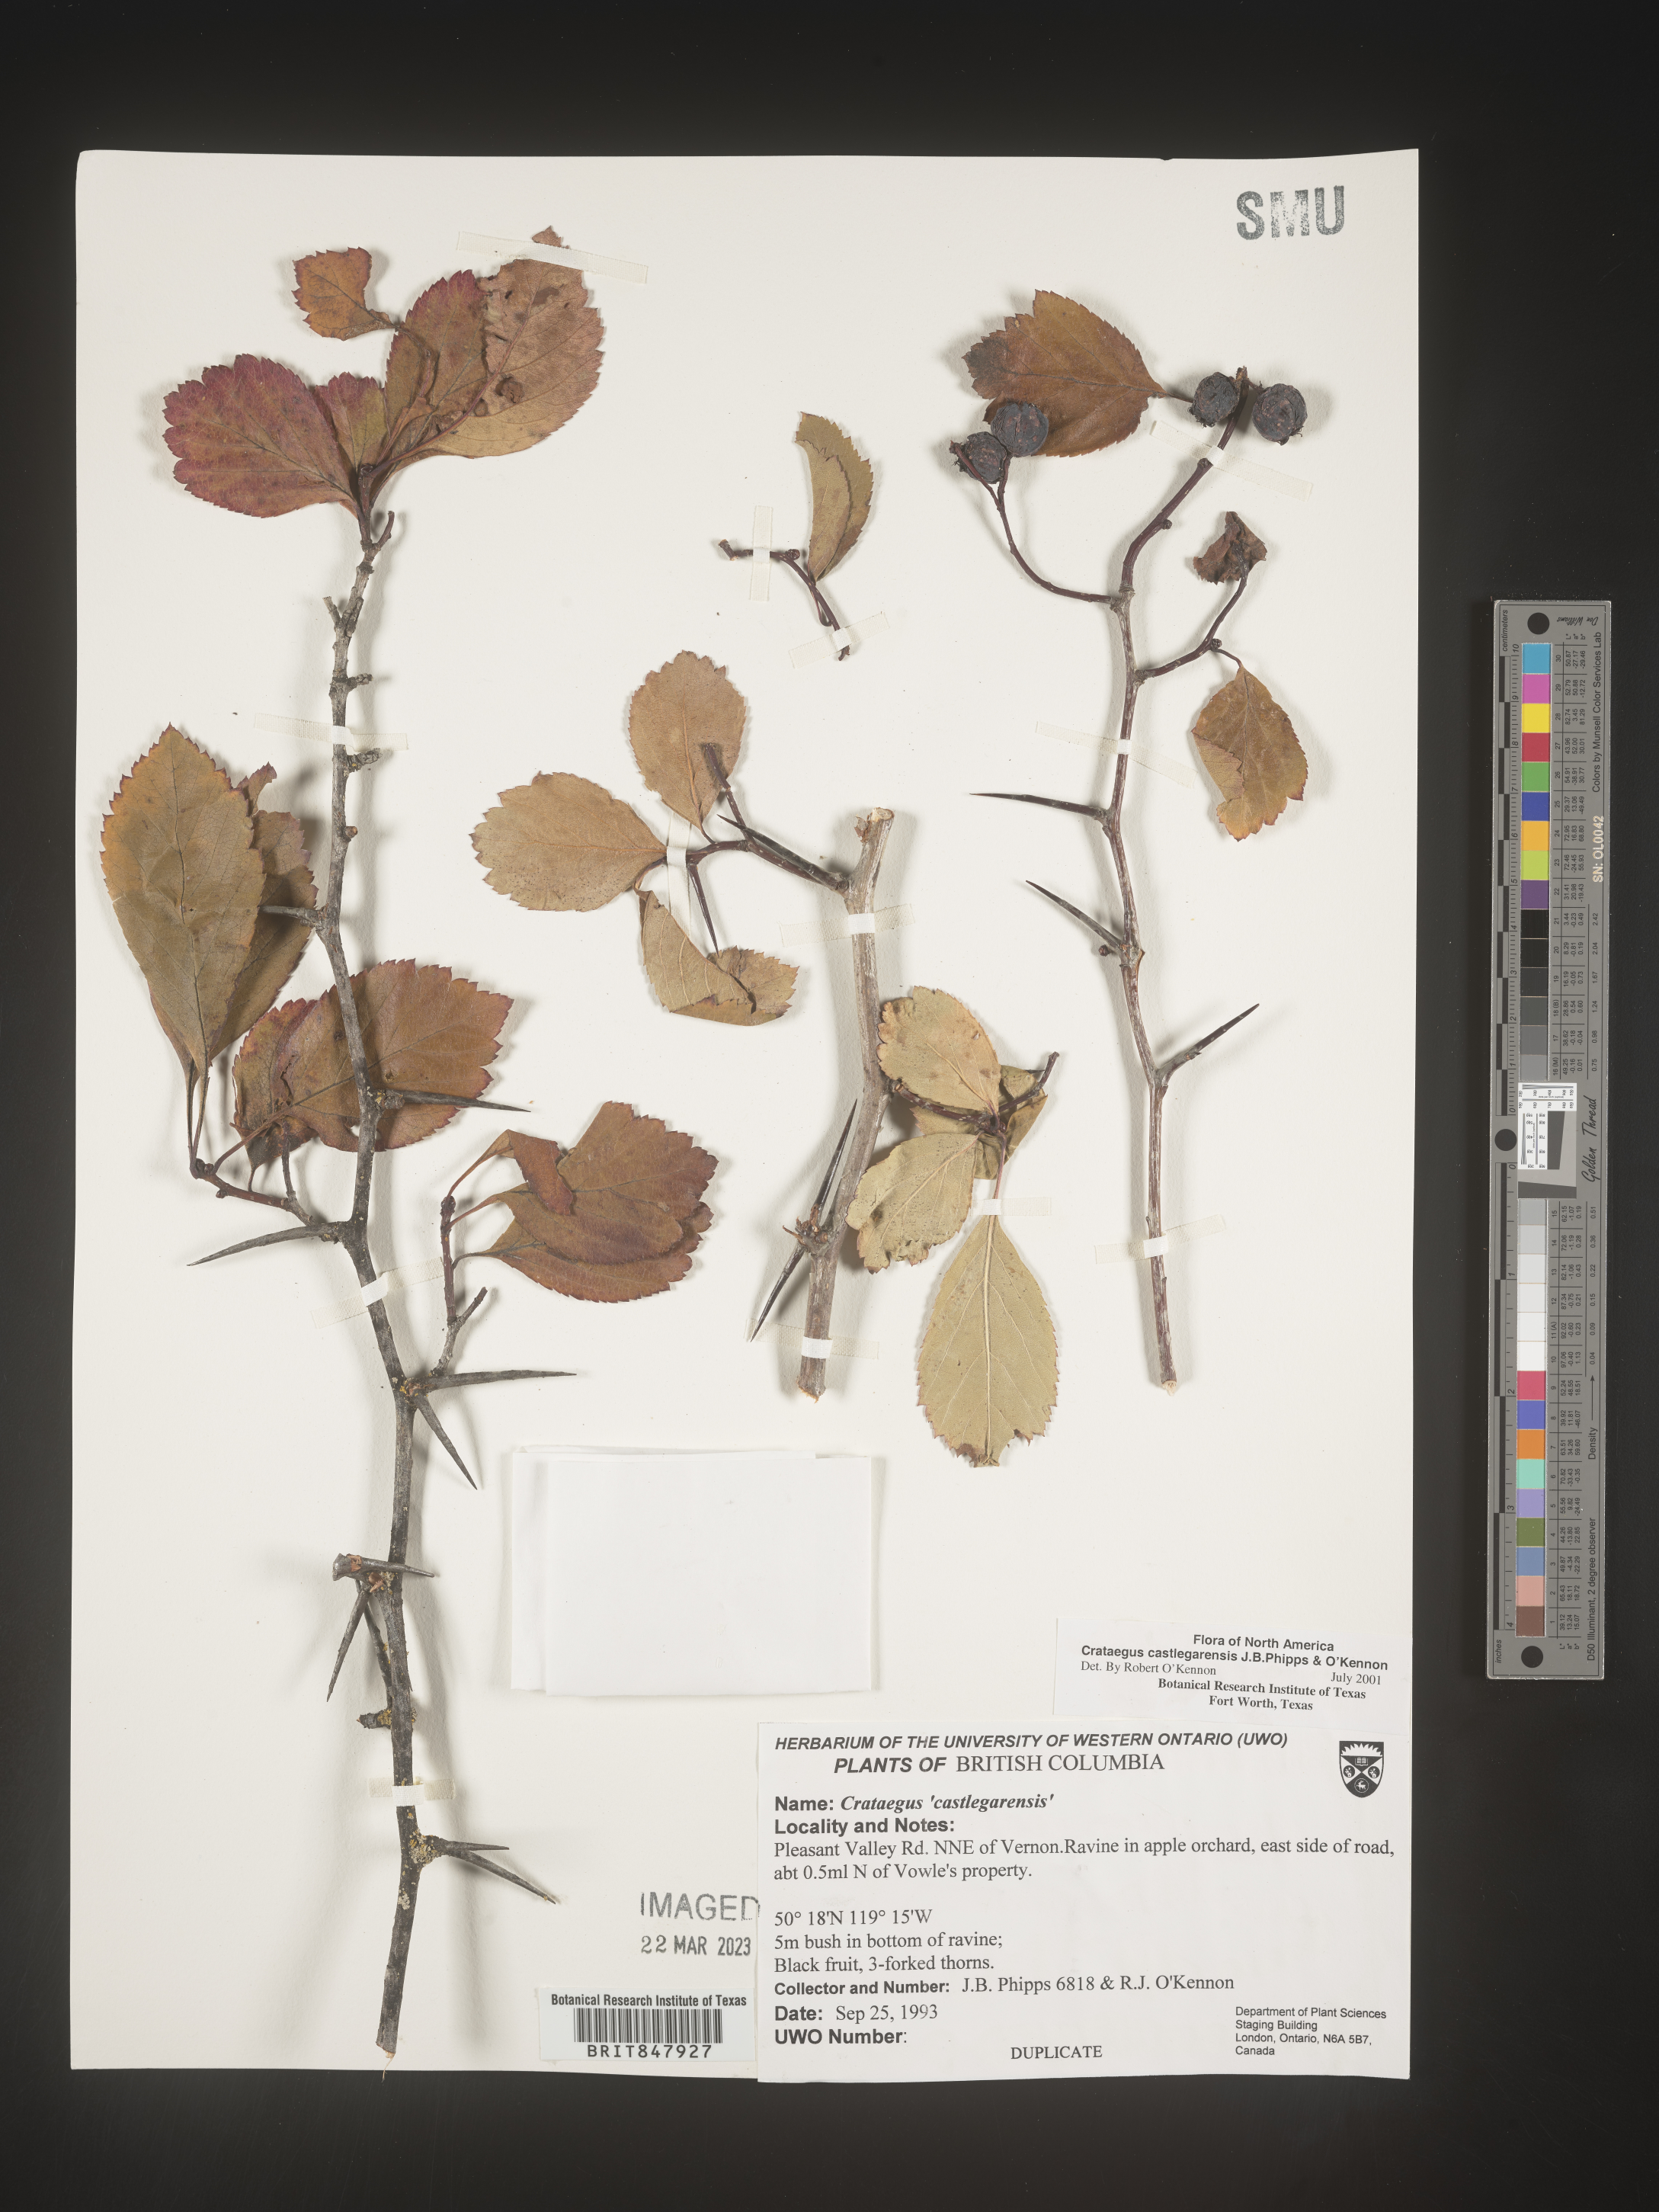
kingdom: Plantae
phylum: Tracheophyta
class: Magnoliopsida
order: Rosales
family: Rosaceae
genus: Crataegus
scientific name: Crataegus castlegarensis
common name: Castlegar hawthorn
